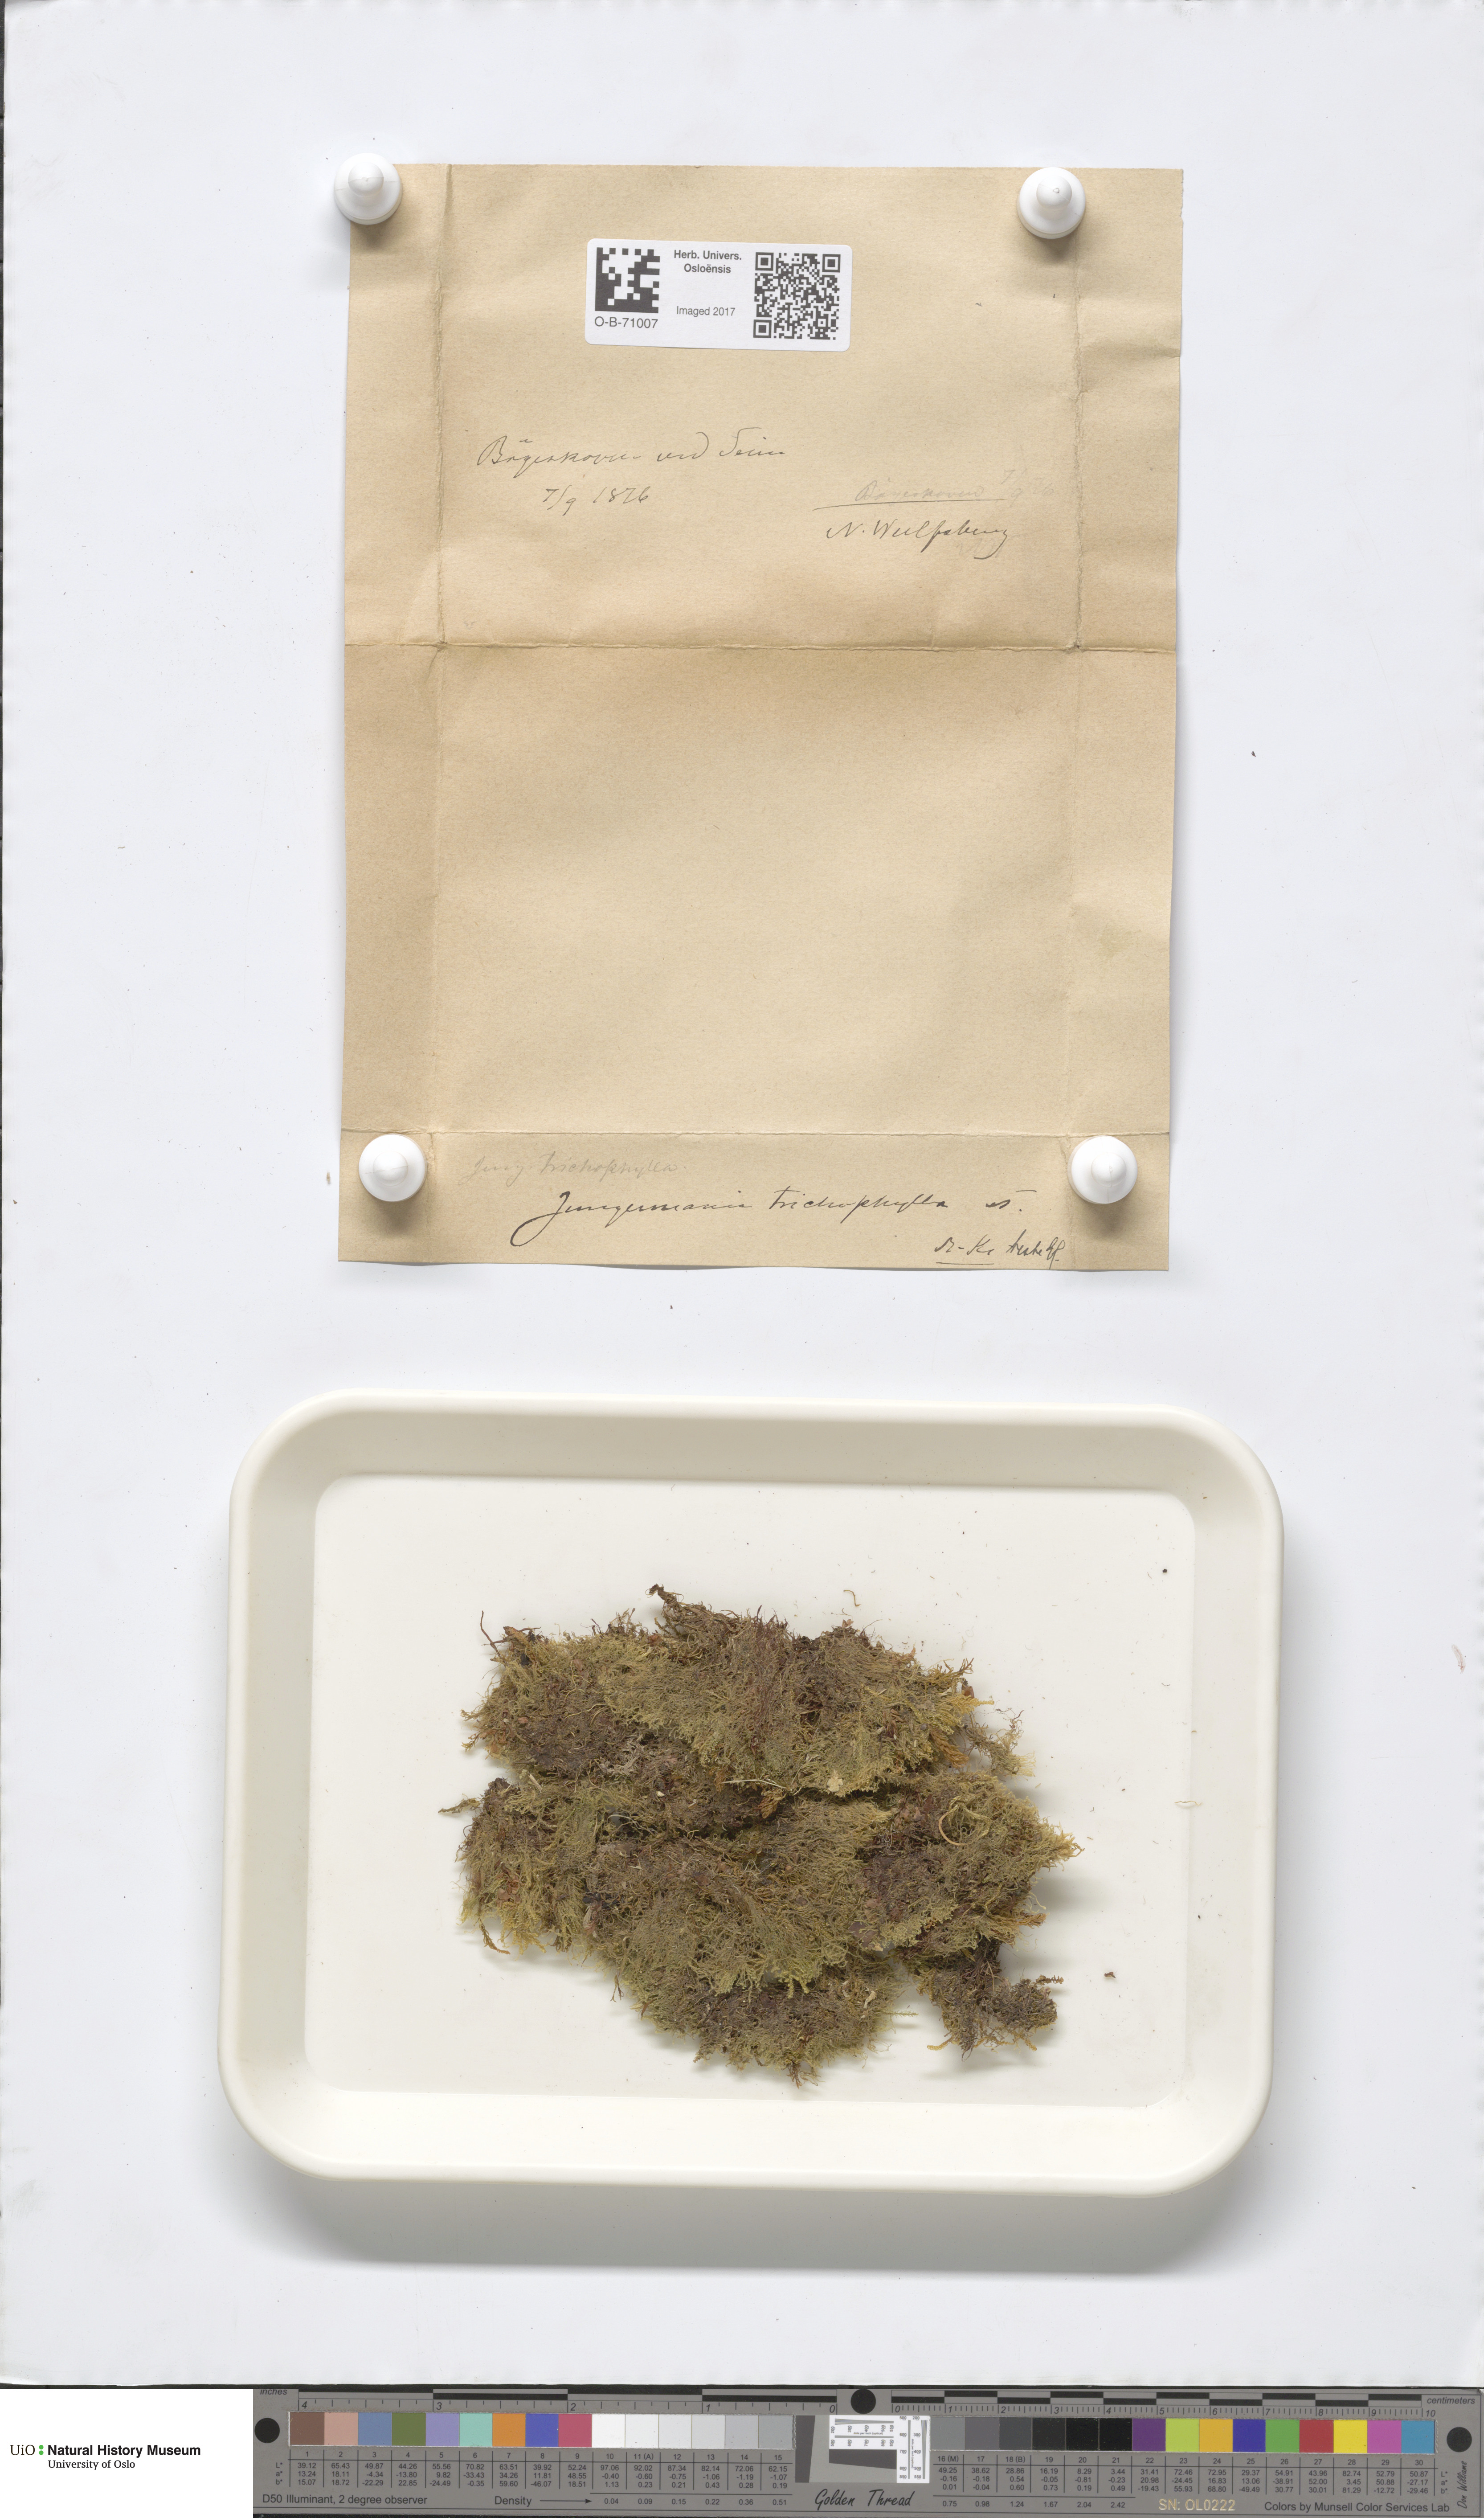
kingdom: Plantae
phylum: Marchantiophyta
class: Jungermanniopsida
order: Jungermanniales
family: Blepharostomataceae
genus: Blepharostoma
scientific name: Blepharostoma trichophyllum
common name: Hairy threadwort
